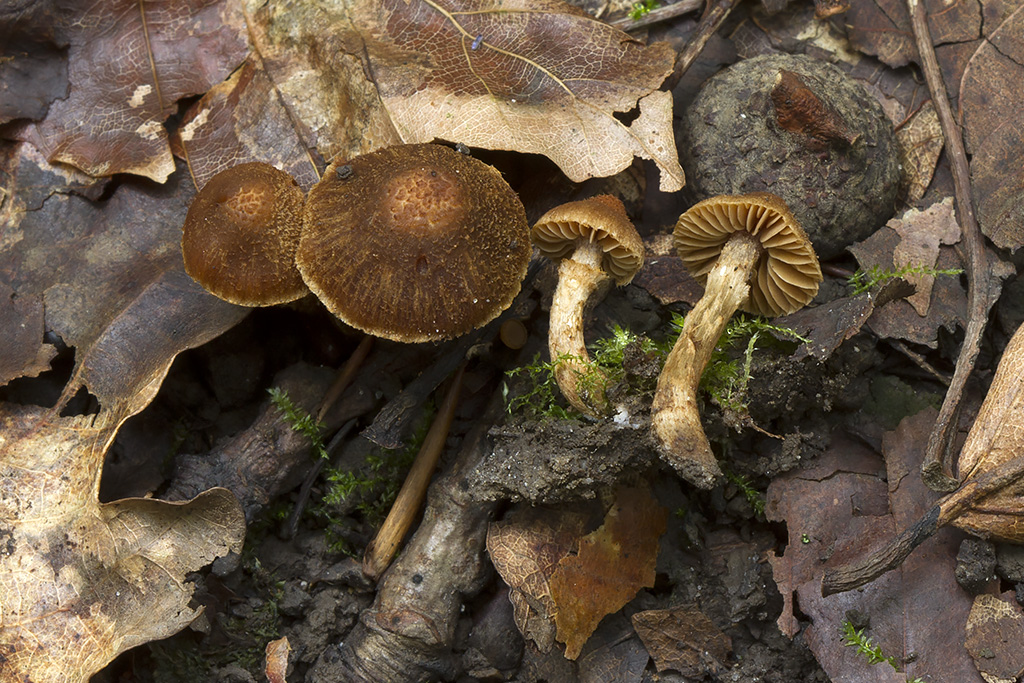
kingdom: Fungi
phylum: Basidiomycota
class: Agaricomycetes
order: Agaricales
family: Cortinariaceae
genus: Cortinarius
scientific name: Cortinarius quercoconicus
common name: agernskål-slørhat
